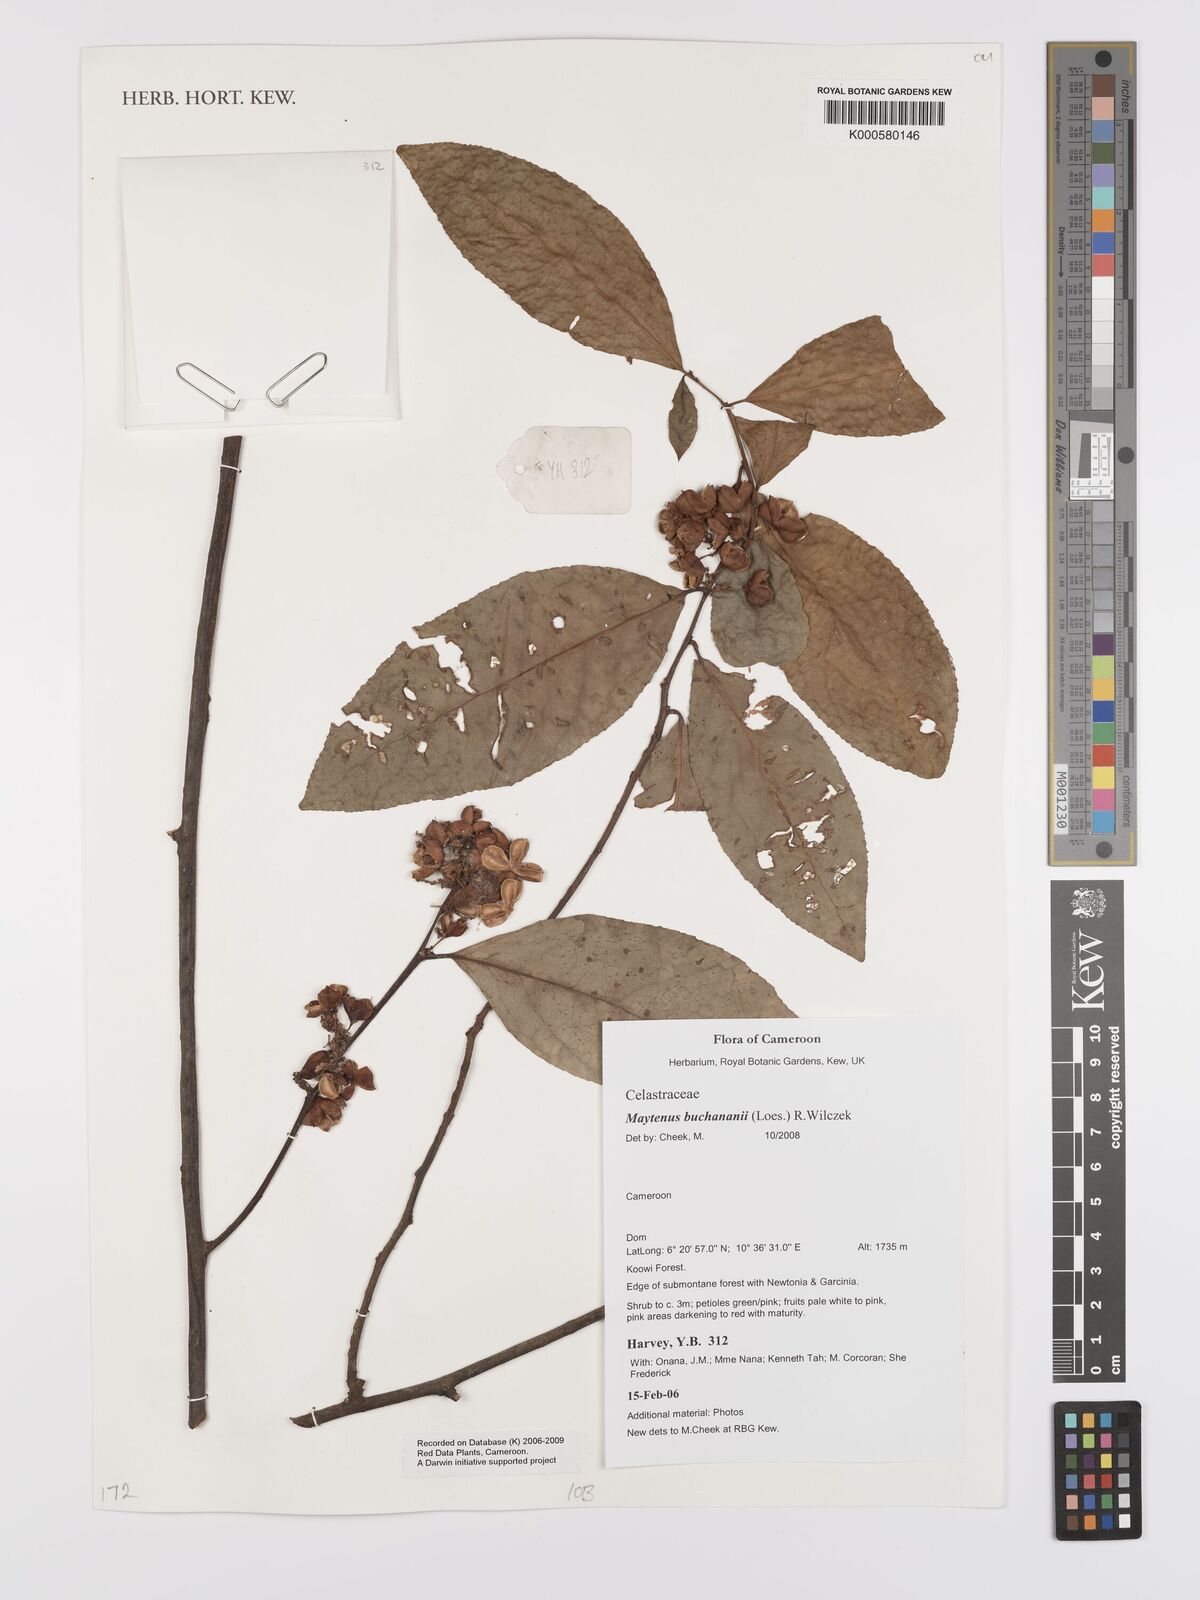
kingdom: Plantae
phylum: Tracheophyta
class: Magnoliopsida
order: Celastrales
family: Celastraceae
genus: Gymnosporia
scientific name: Gymnosporia buchananii
